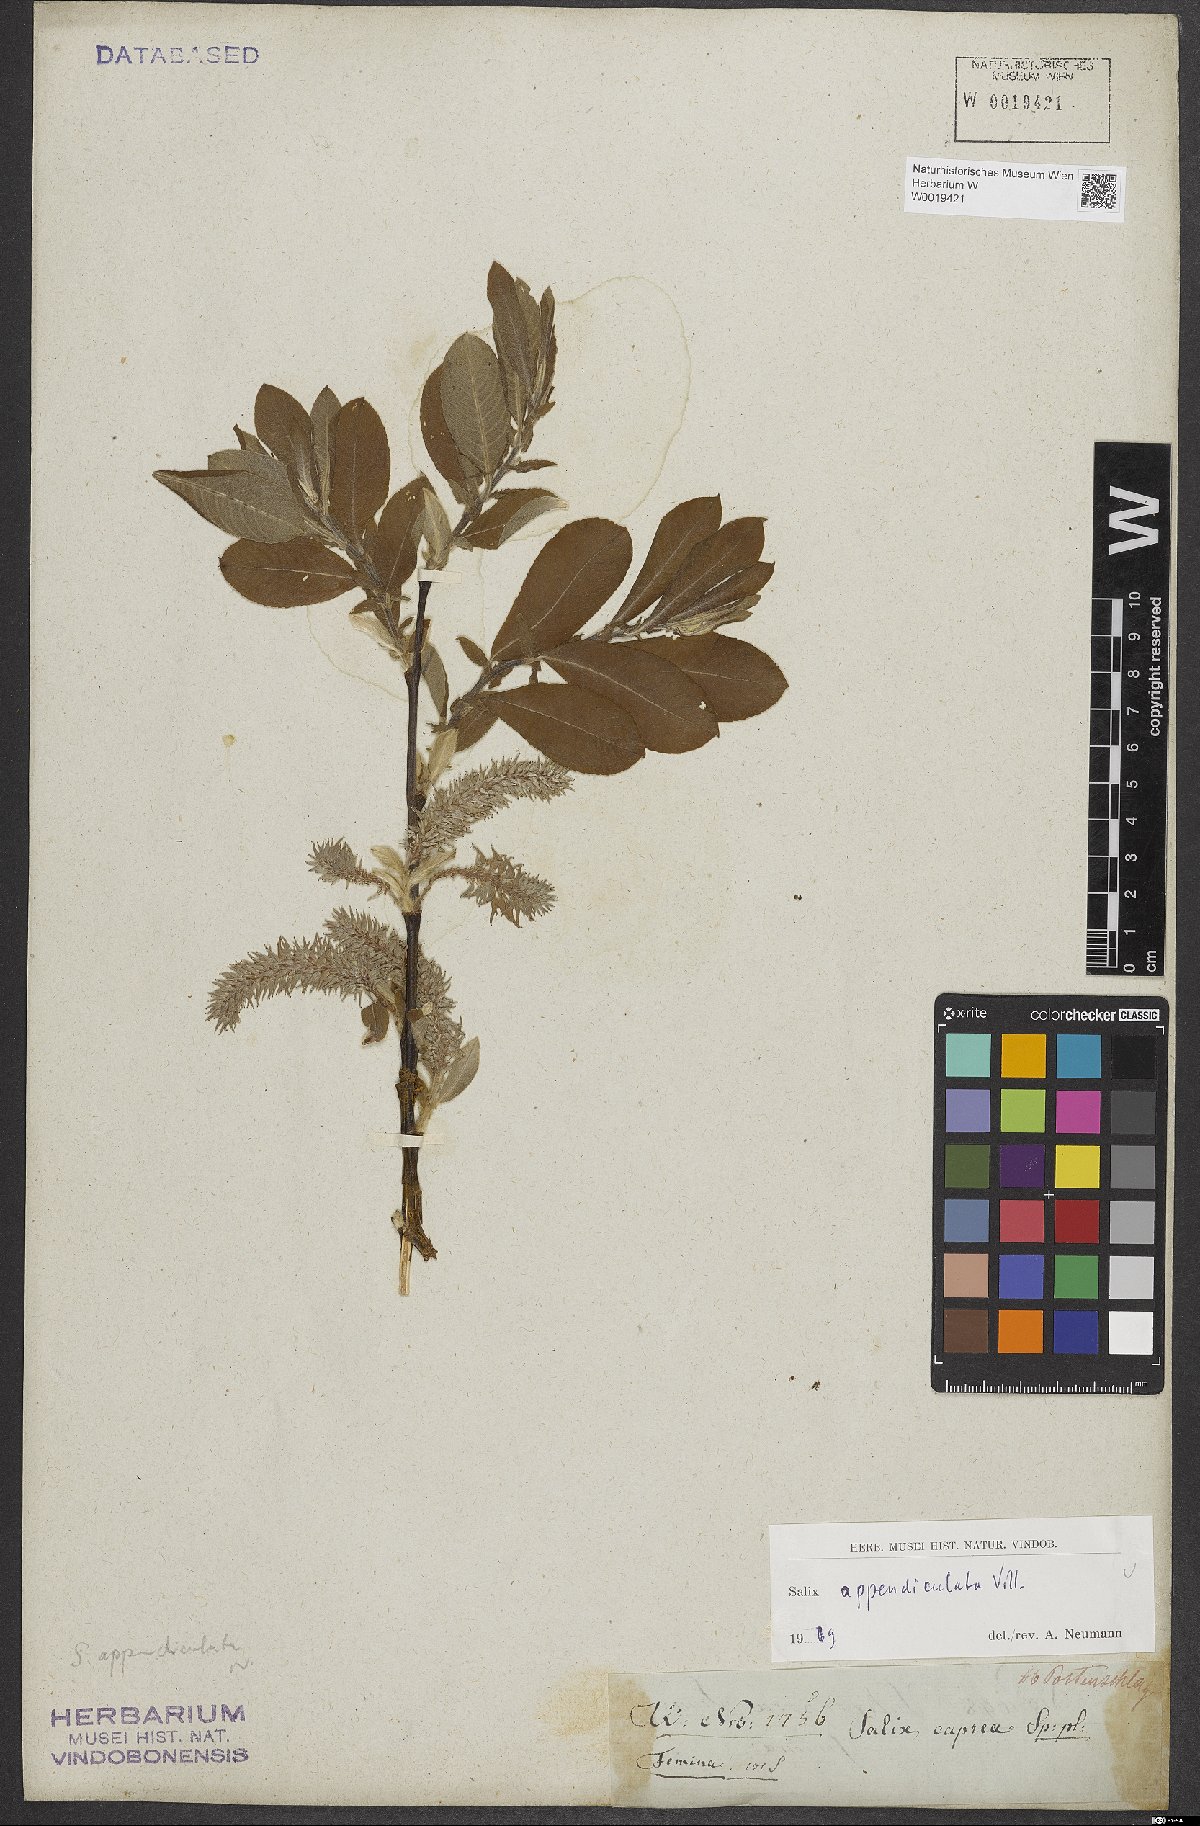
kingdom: Plantae
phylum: Tracheophyta
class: Magnoliopsida
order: Malpighiales
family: Salicaceae
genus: Salix
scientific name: Salix appendiculata
